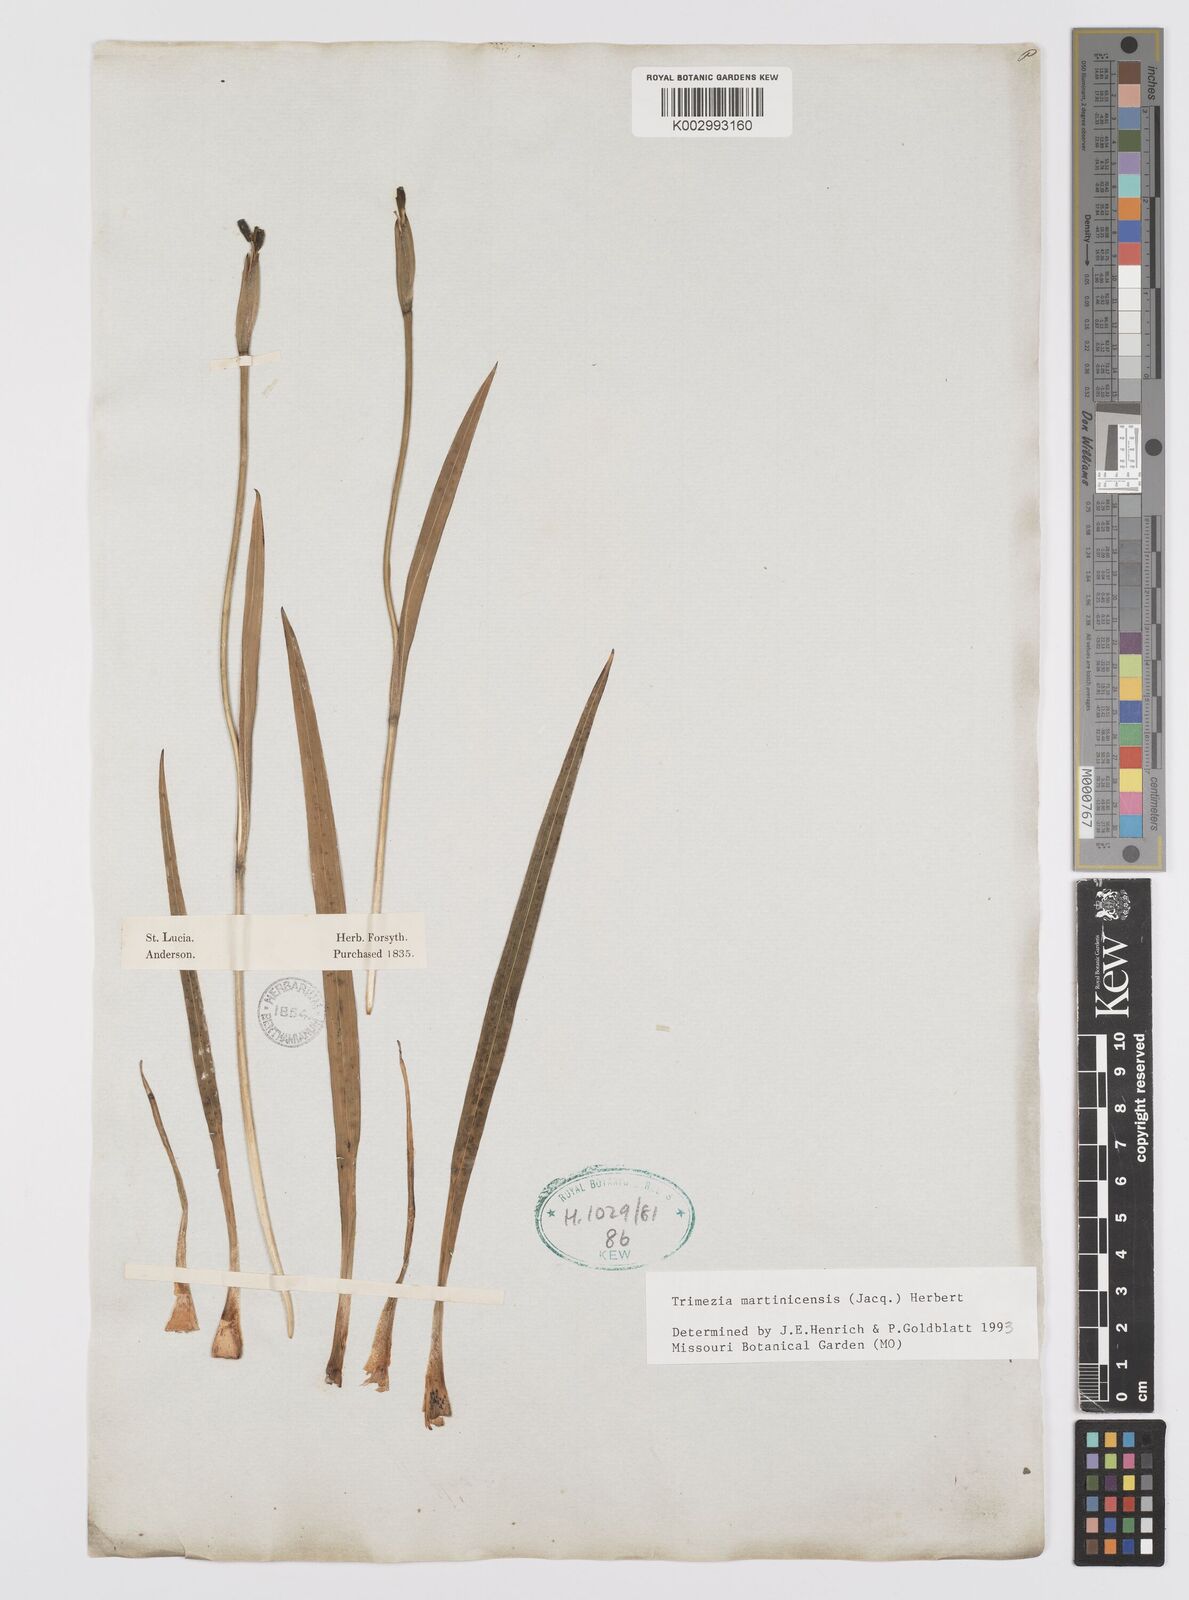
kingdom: Plantae
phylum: Tracheophyta
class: Liliopsida
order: Asparagales
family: Iridaceae
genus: Trimezia
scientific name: Trimezia martinicensis
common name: Martinique trimezia
